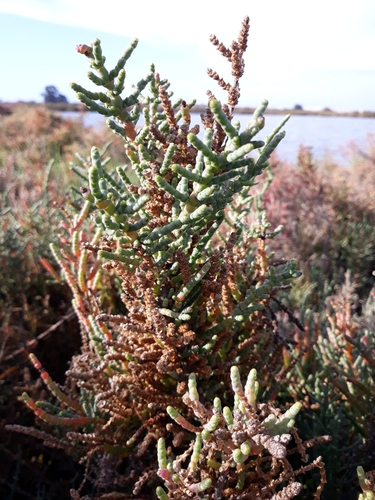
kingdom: Plantae
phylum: Tracheophyta
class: Magnoliopsida
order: Caryophyllales
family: Amaranthaceae
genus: Salicornia
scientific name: Salicornia fruticosa
